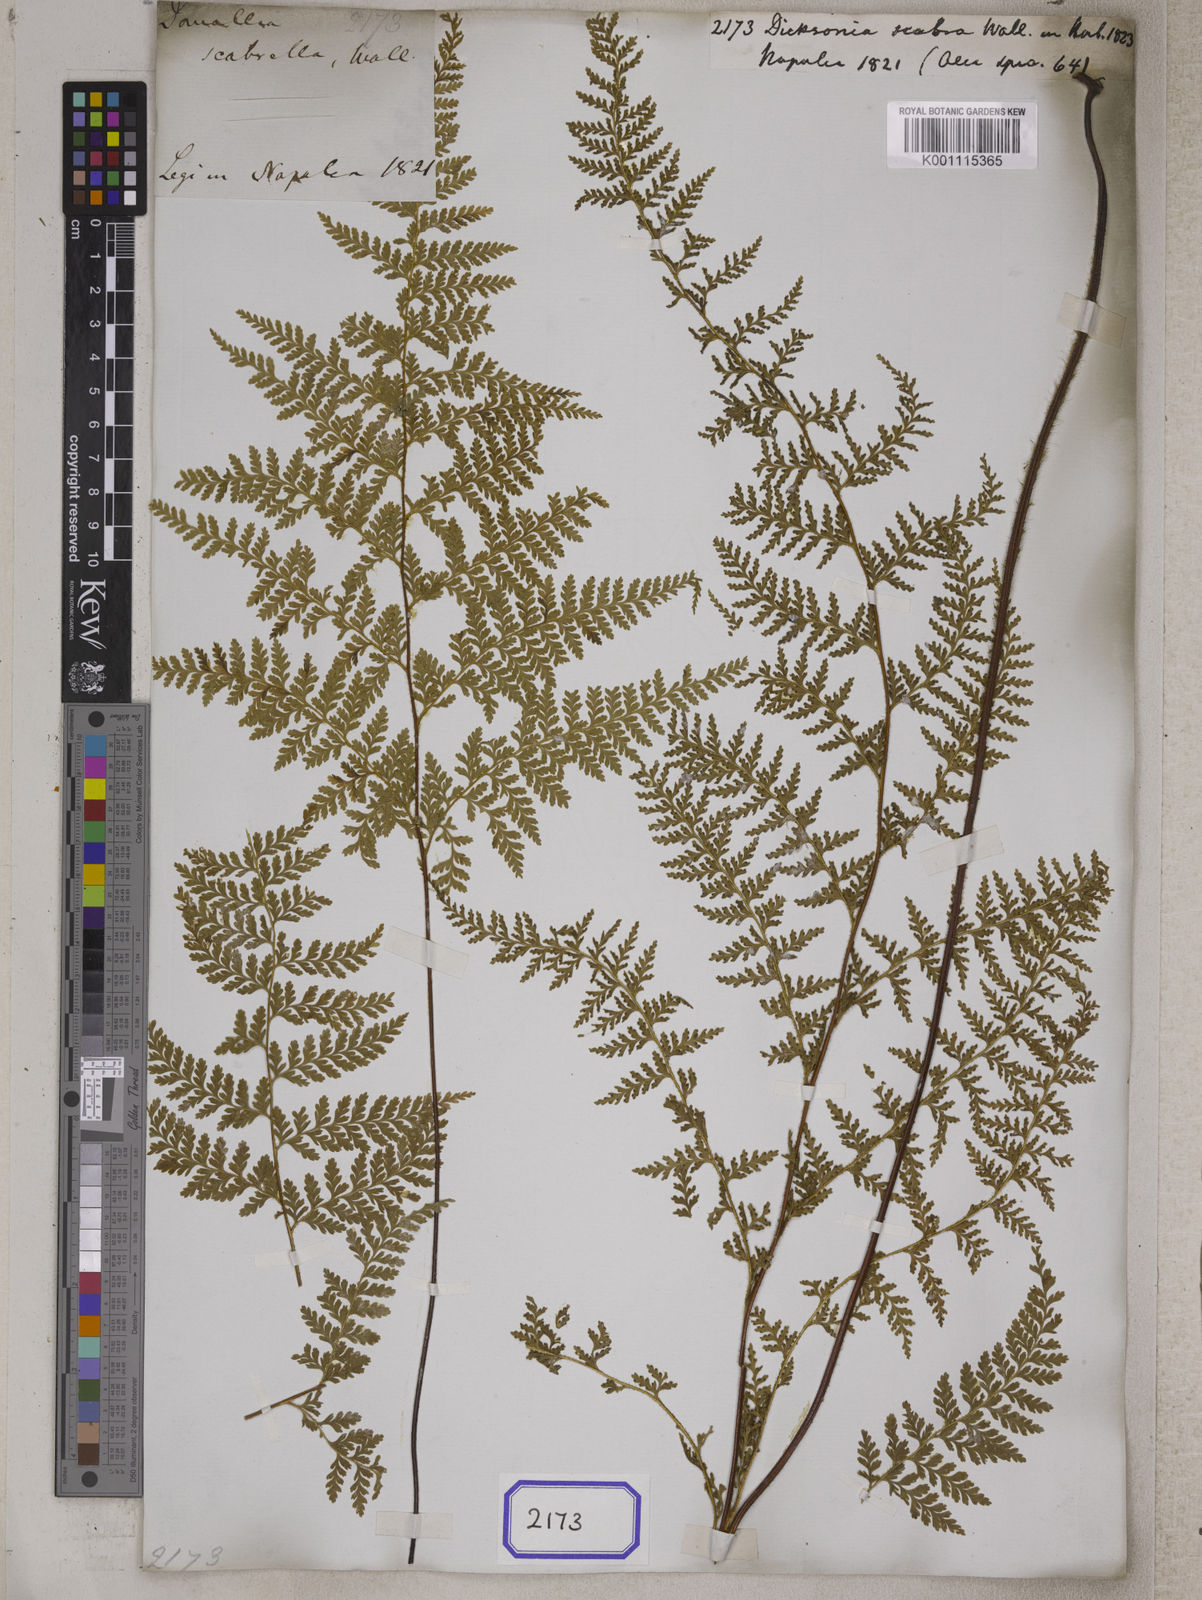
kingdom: Plantae
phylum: Tracheophyta
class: Polypodiopsida
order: Polypodiales
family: Dennstaedtiaceae
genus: Sitobolium
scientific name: Sitobolium zeylanicum
